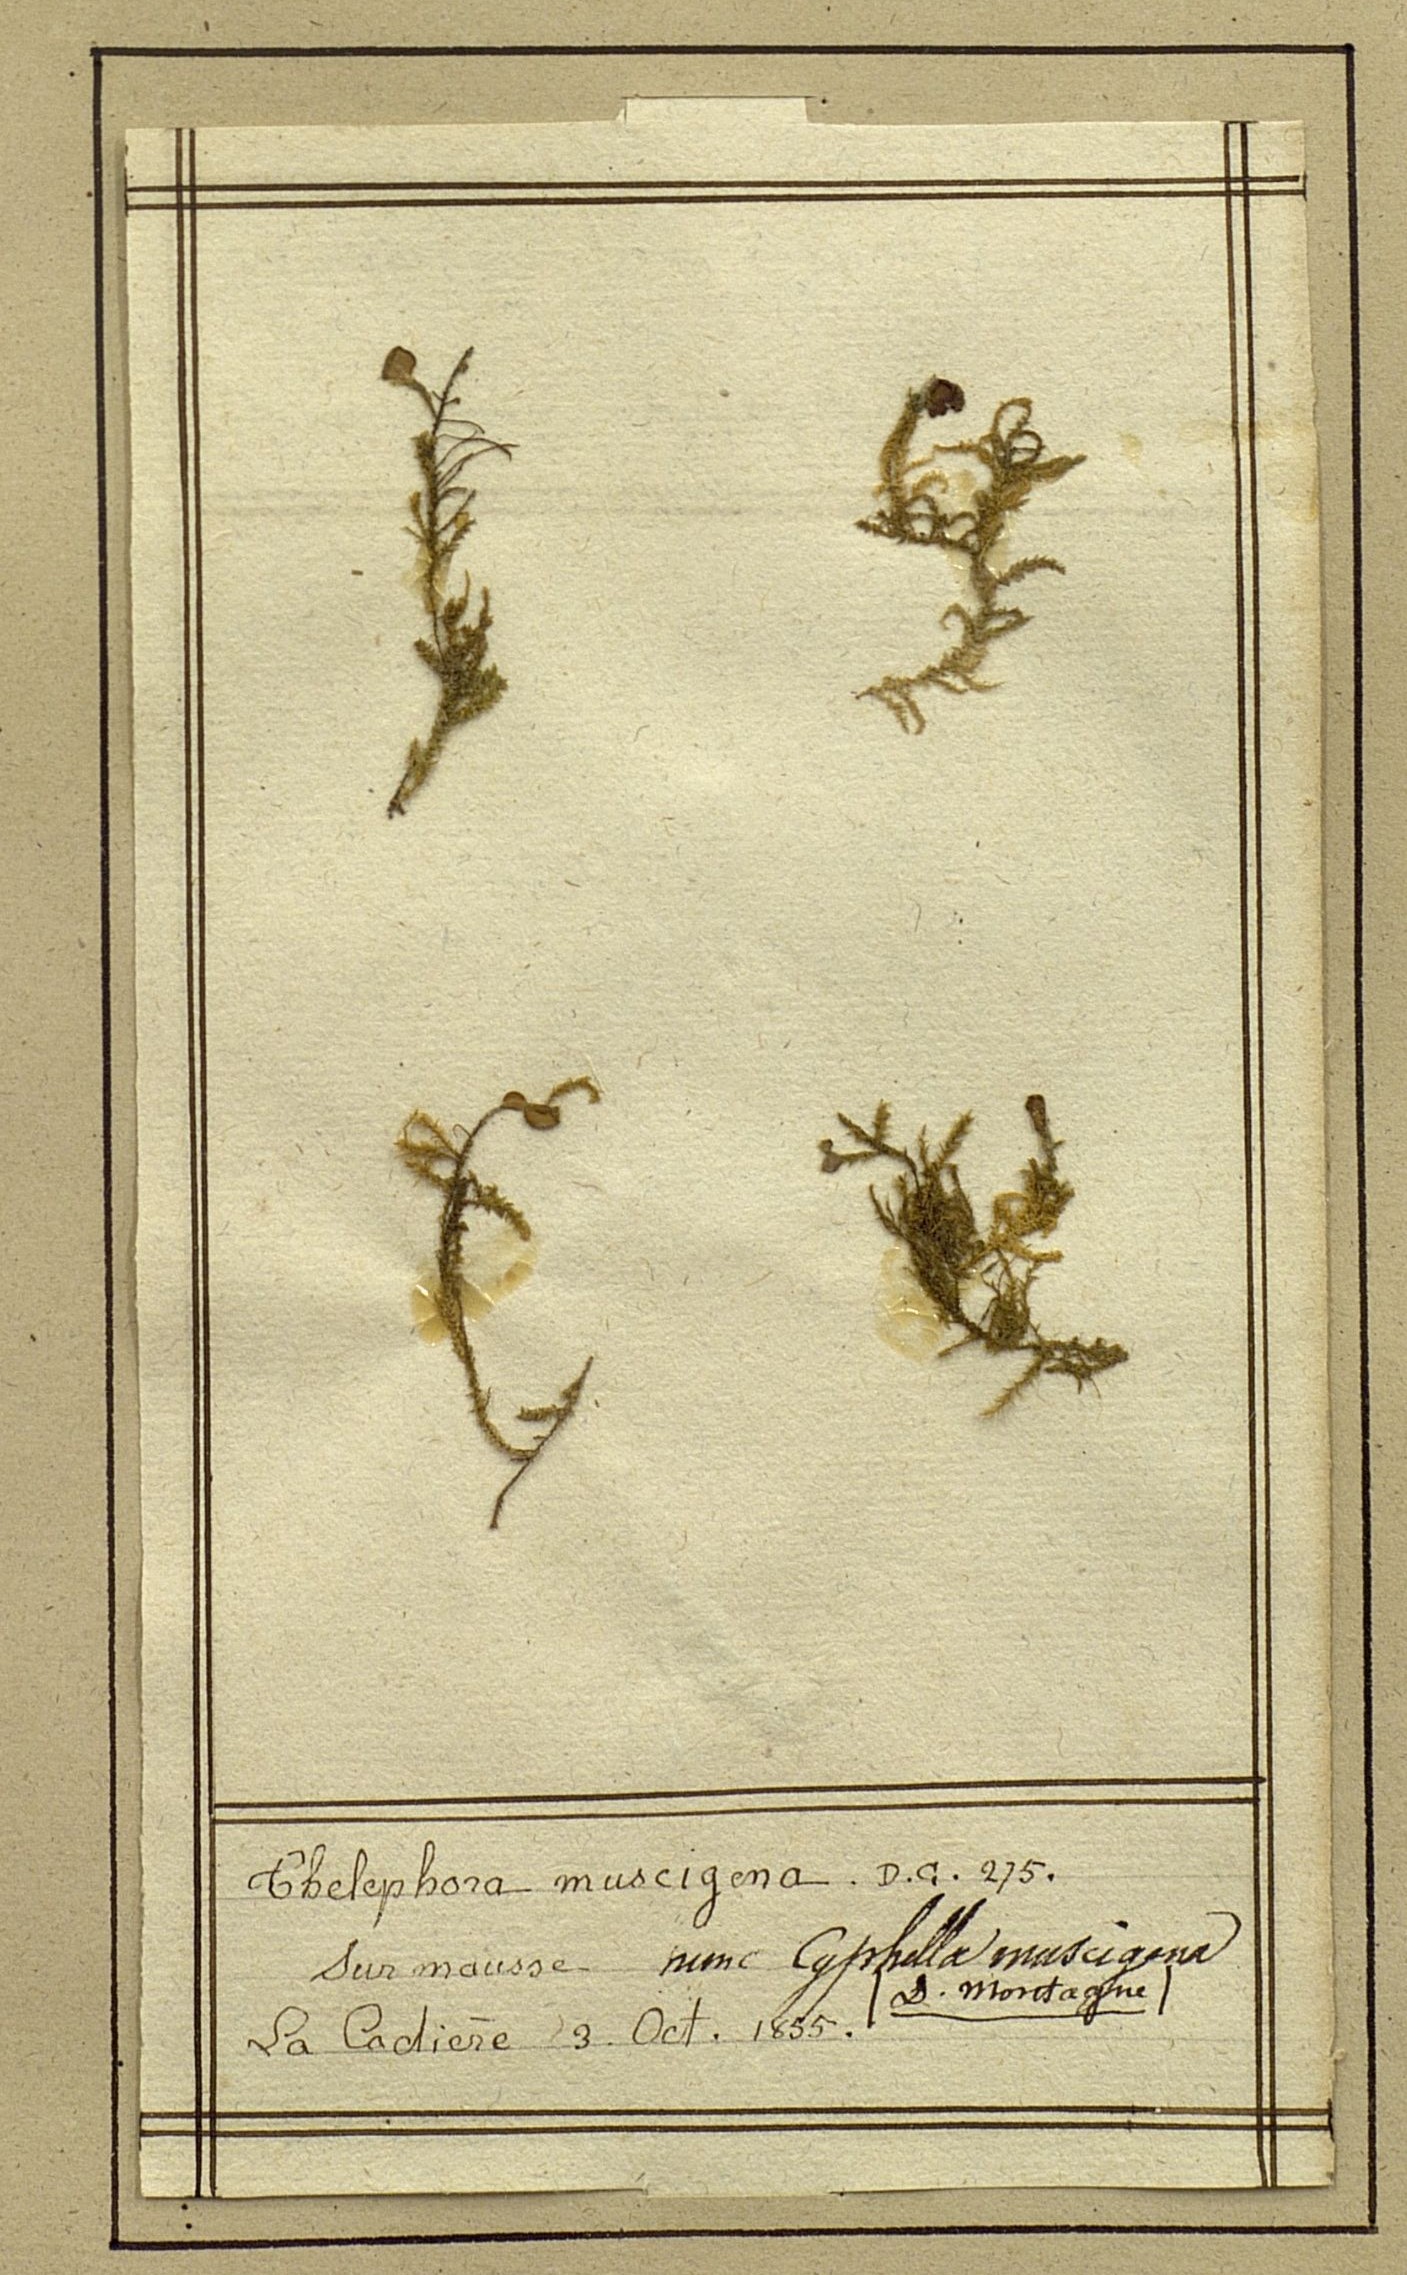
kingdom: Fungi
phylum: Basidiomycota
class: Agaricomycetes
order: Thelephorales
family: Thelephoraceae
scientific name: Thelephoraceae
